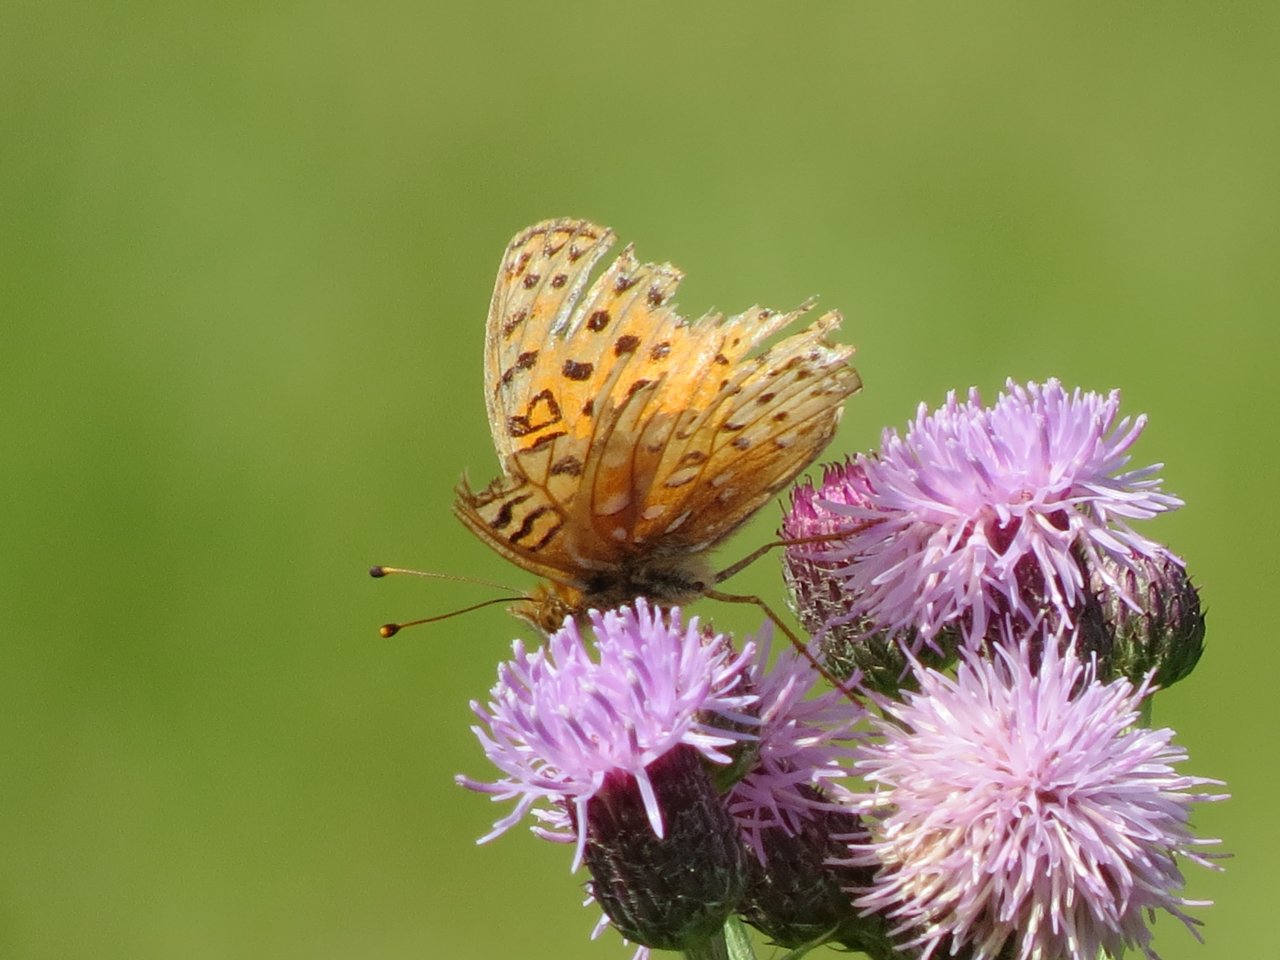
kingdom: Animalia
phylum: Arthropoda
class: Insecta
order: Lepidoptera
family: Nymphalidae
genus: Speyeria
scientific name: Speyeria cybele
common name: Great Spangled Fritillary
